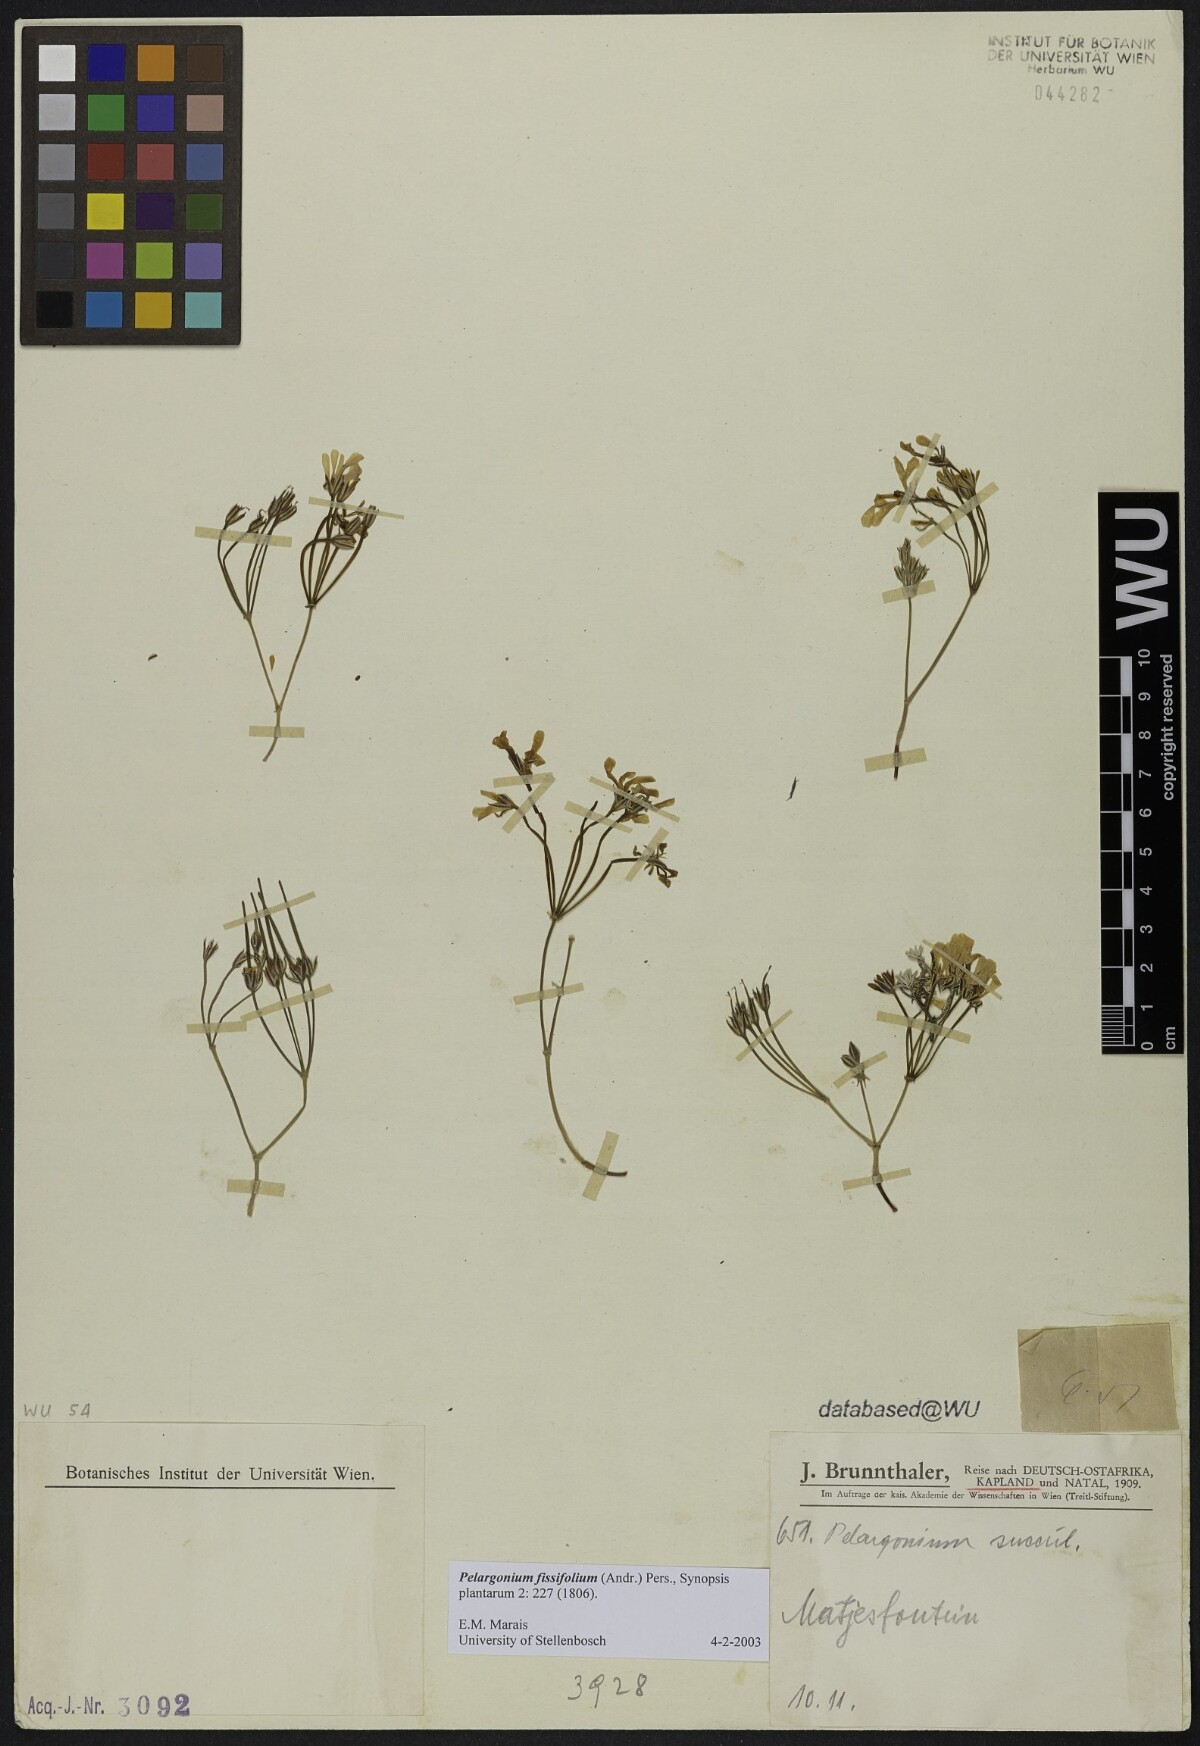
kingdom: Plantae
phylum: Tracheophyta
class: Magnoliopsida
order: Geraniales
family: Geraniaceae
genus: Pelargonium
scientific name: Pelargonium fissifolium
